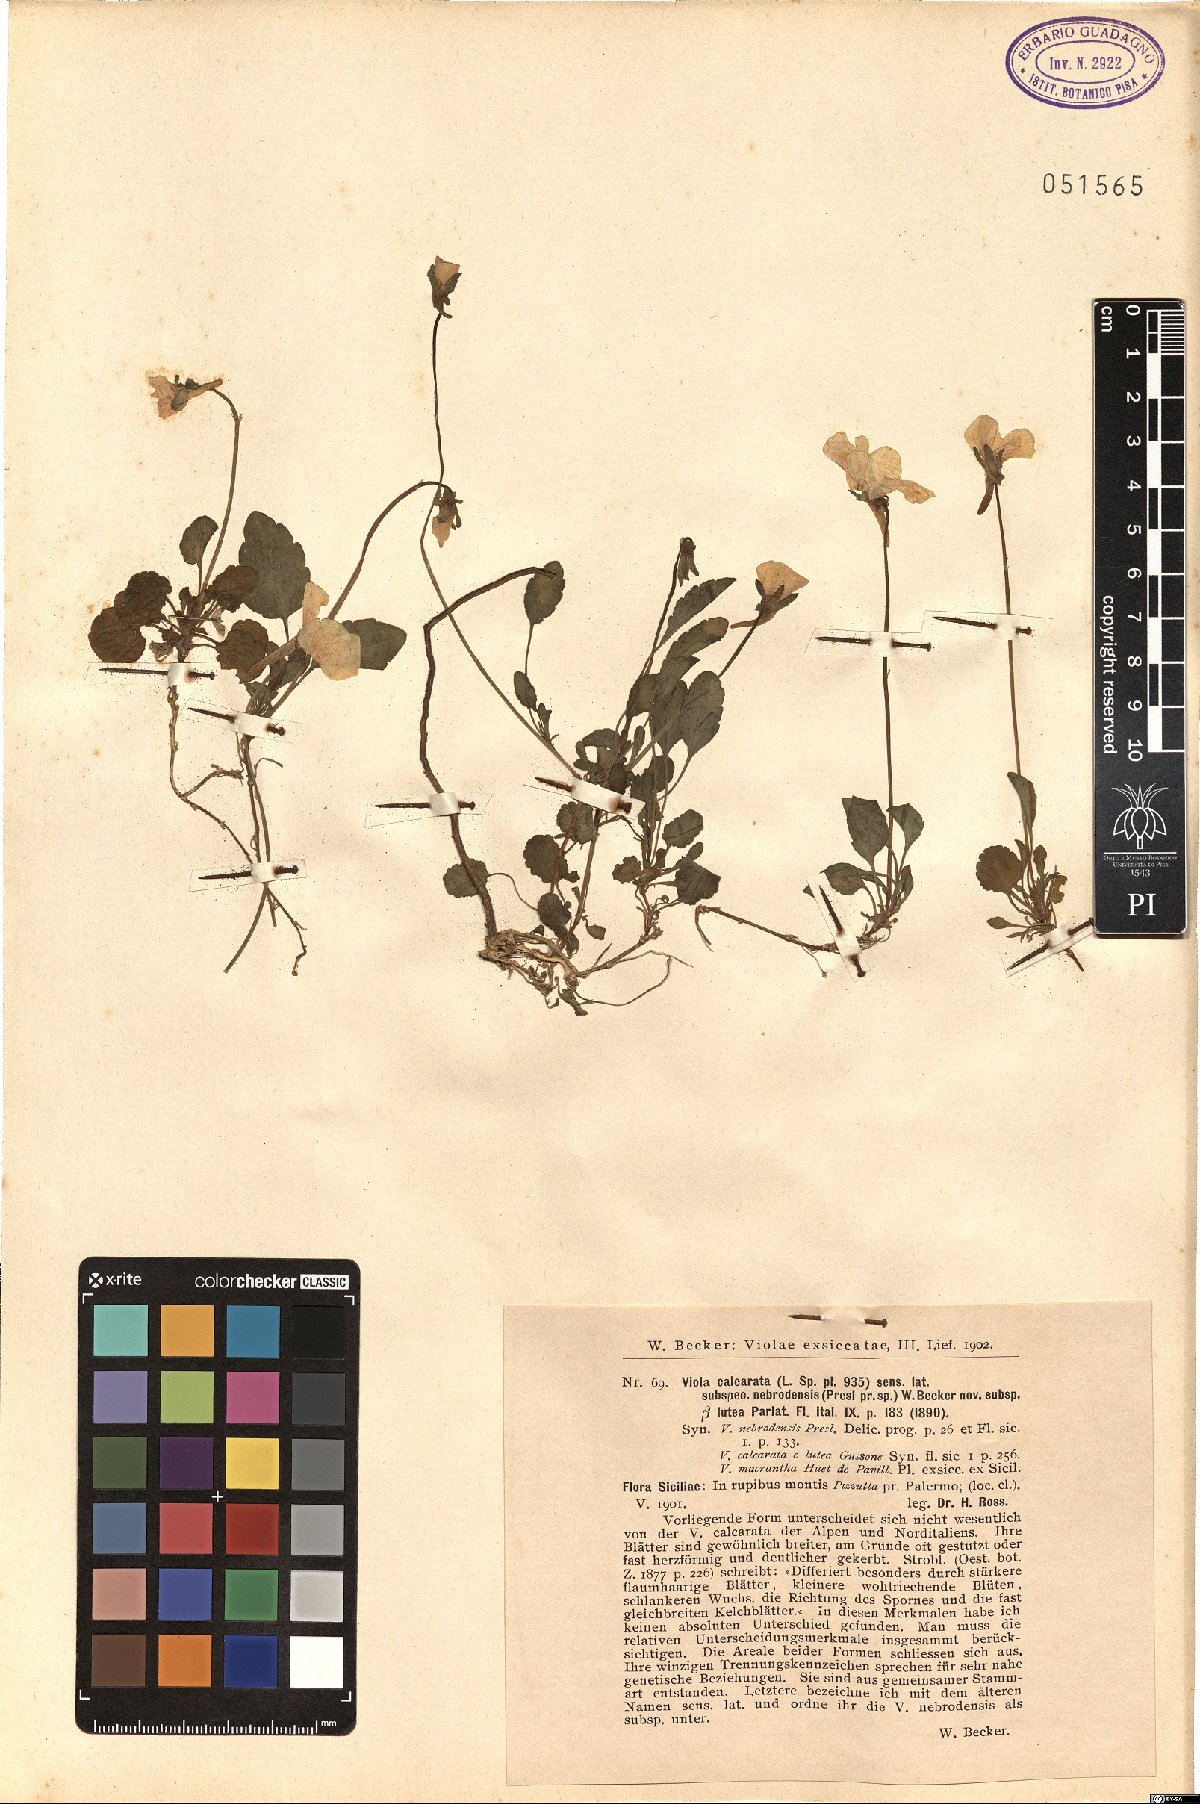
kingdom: Plantae
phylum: Tracheophyta
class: Magnoliopsida
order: Malpighiales
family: Violaceae
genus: Viola
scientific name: Viola calcarata
